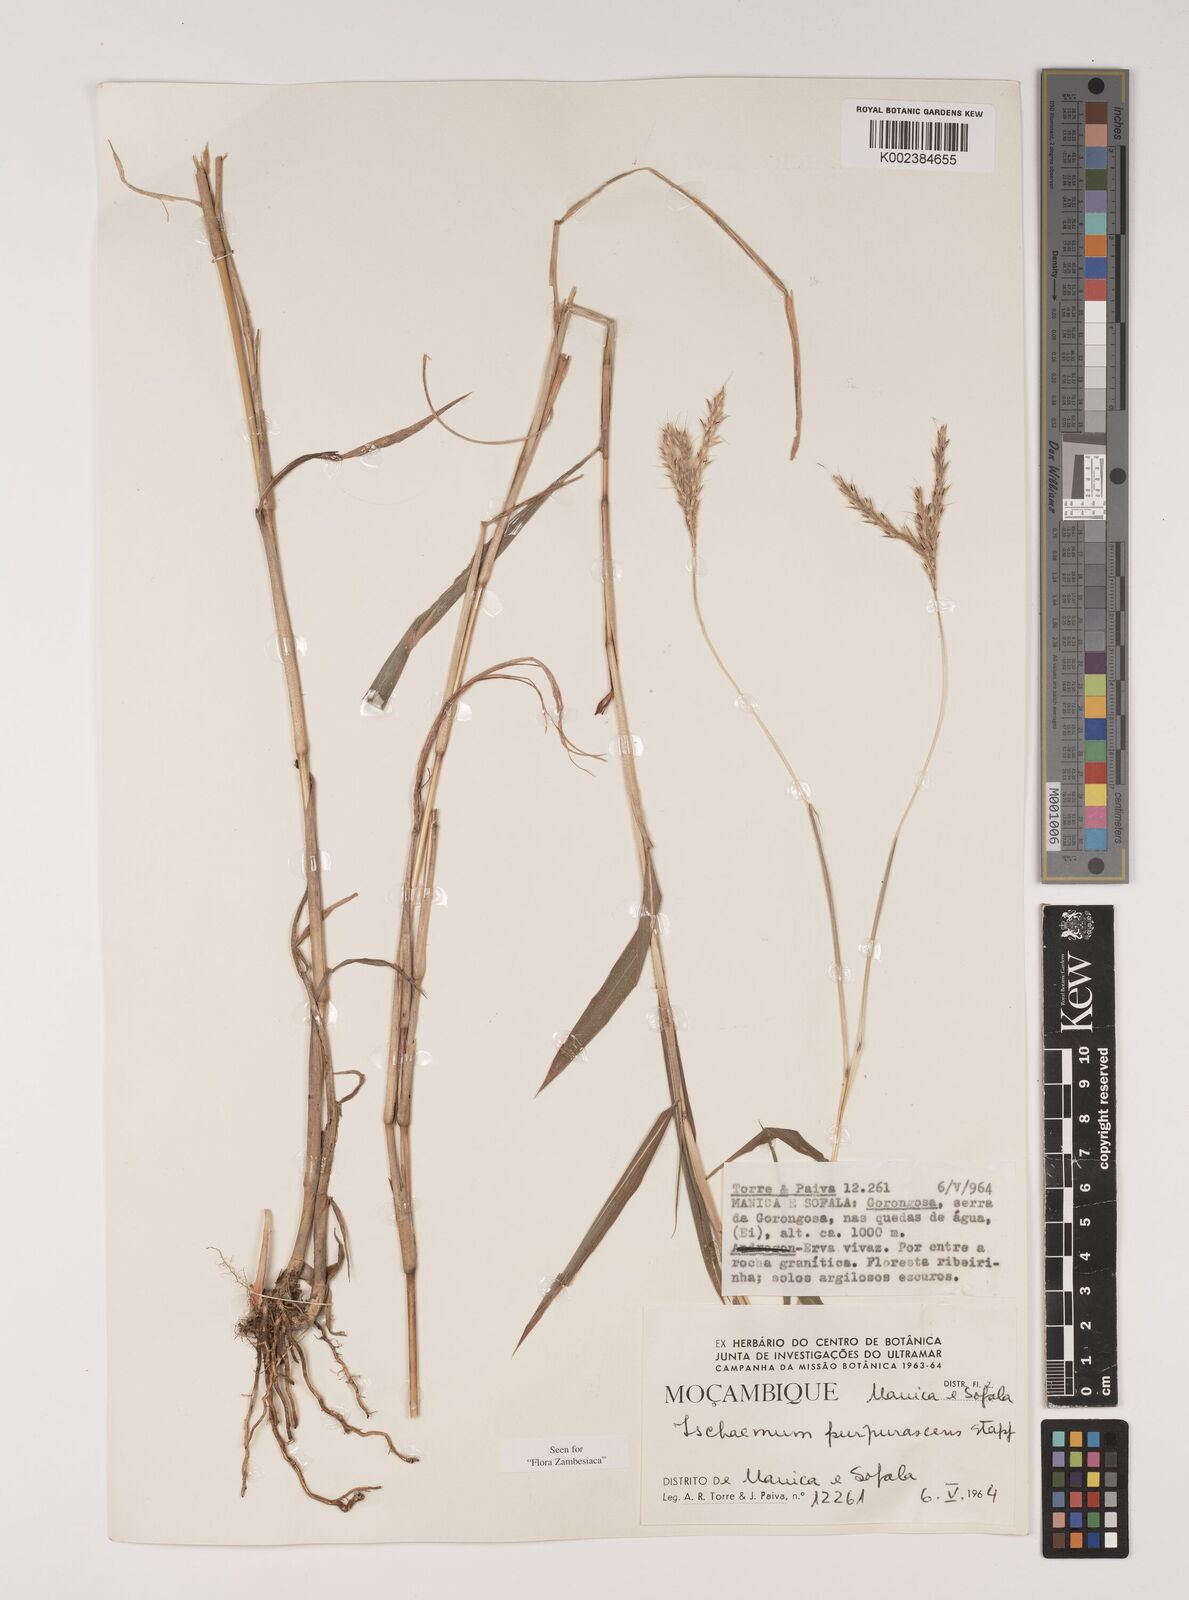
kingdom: Plantae
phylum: Tracheophyta
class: Liliopsida
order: Poales
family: Poaceae
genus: Ischaemum
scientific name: Ischaemum
